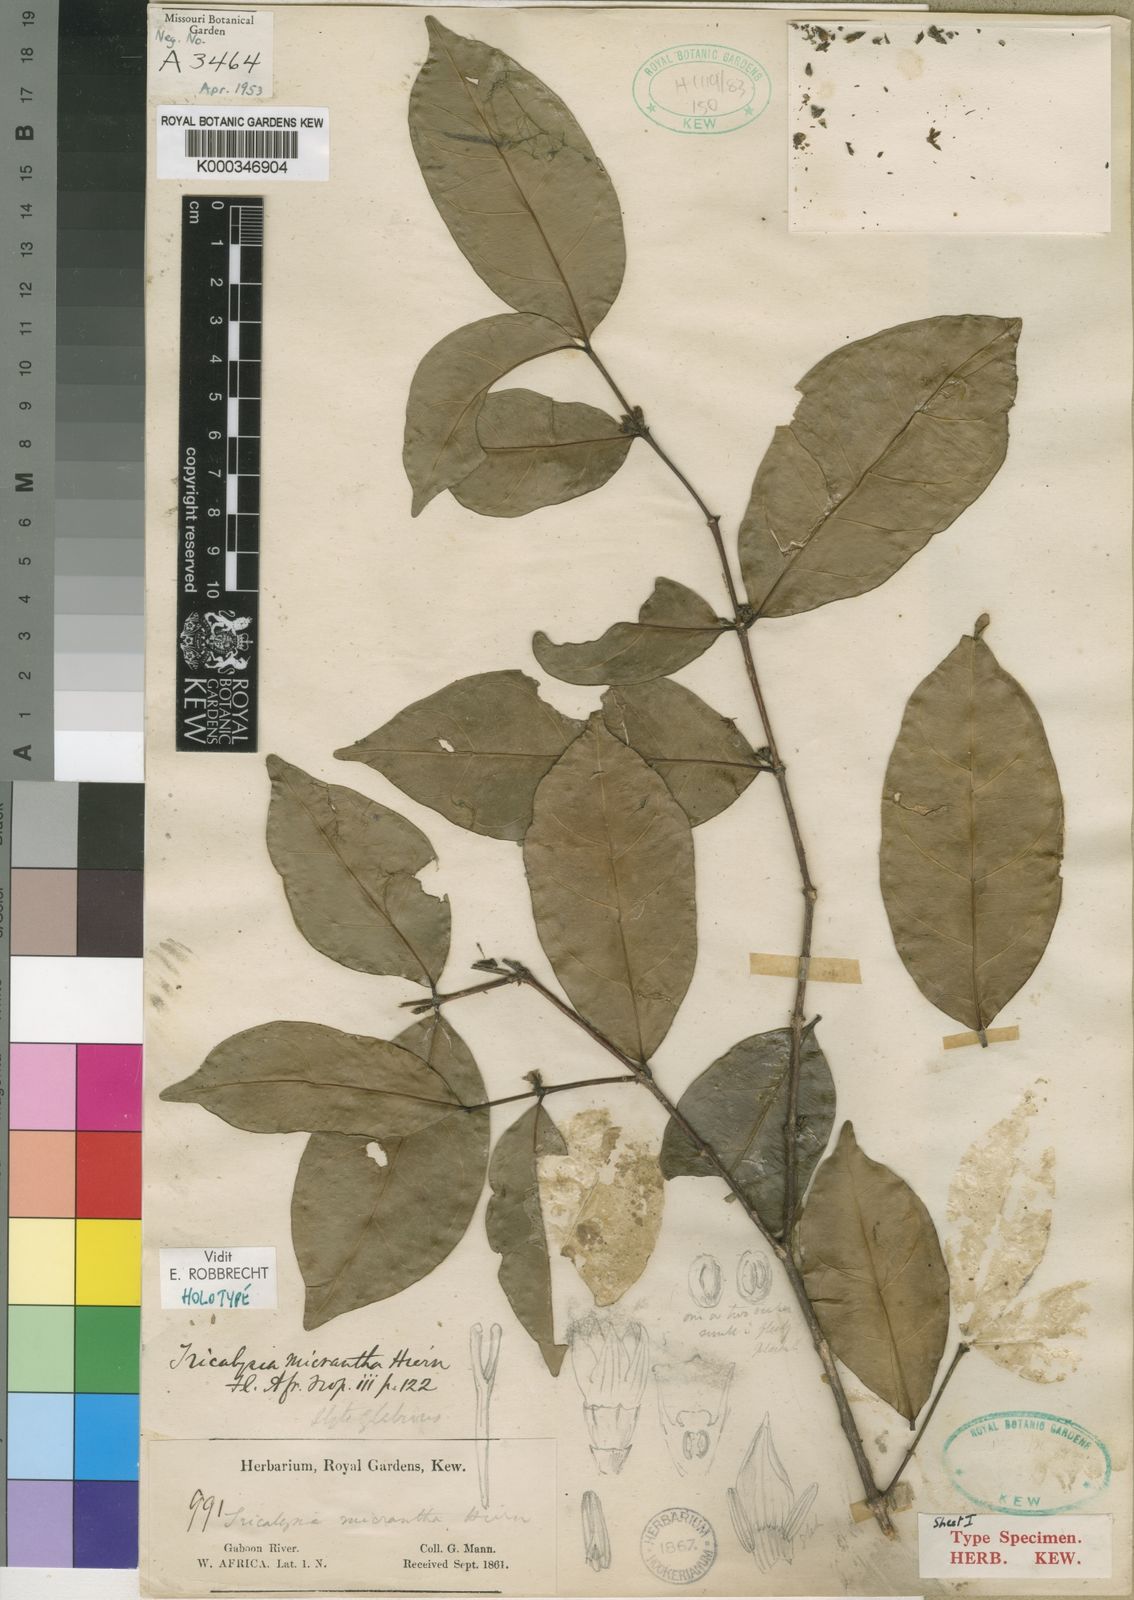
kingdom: Plantae
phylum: Tracheophyta
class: Magnoliopsida
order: Gentianales
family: Rubiaceae
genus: Tricalysia
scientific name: Tricalysia micrantha
